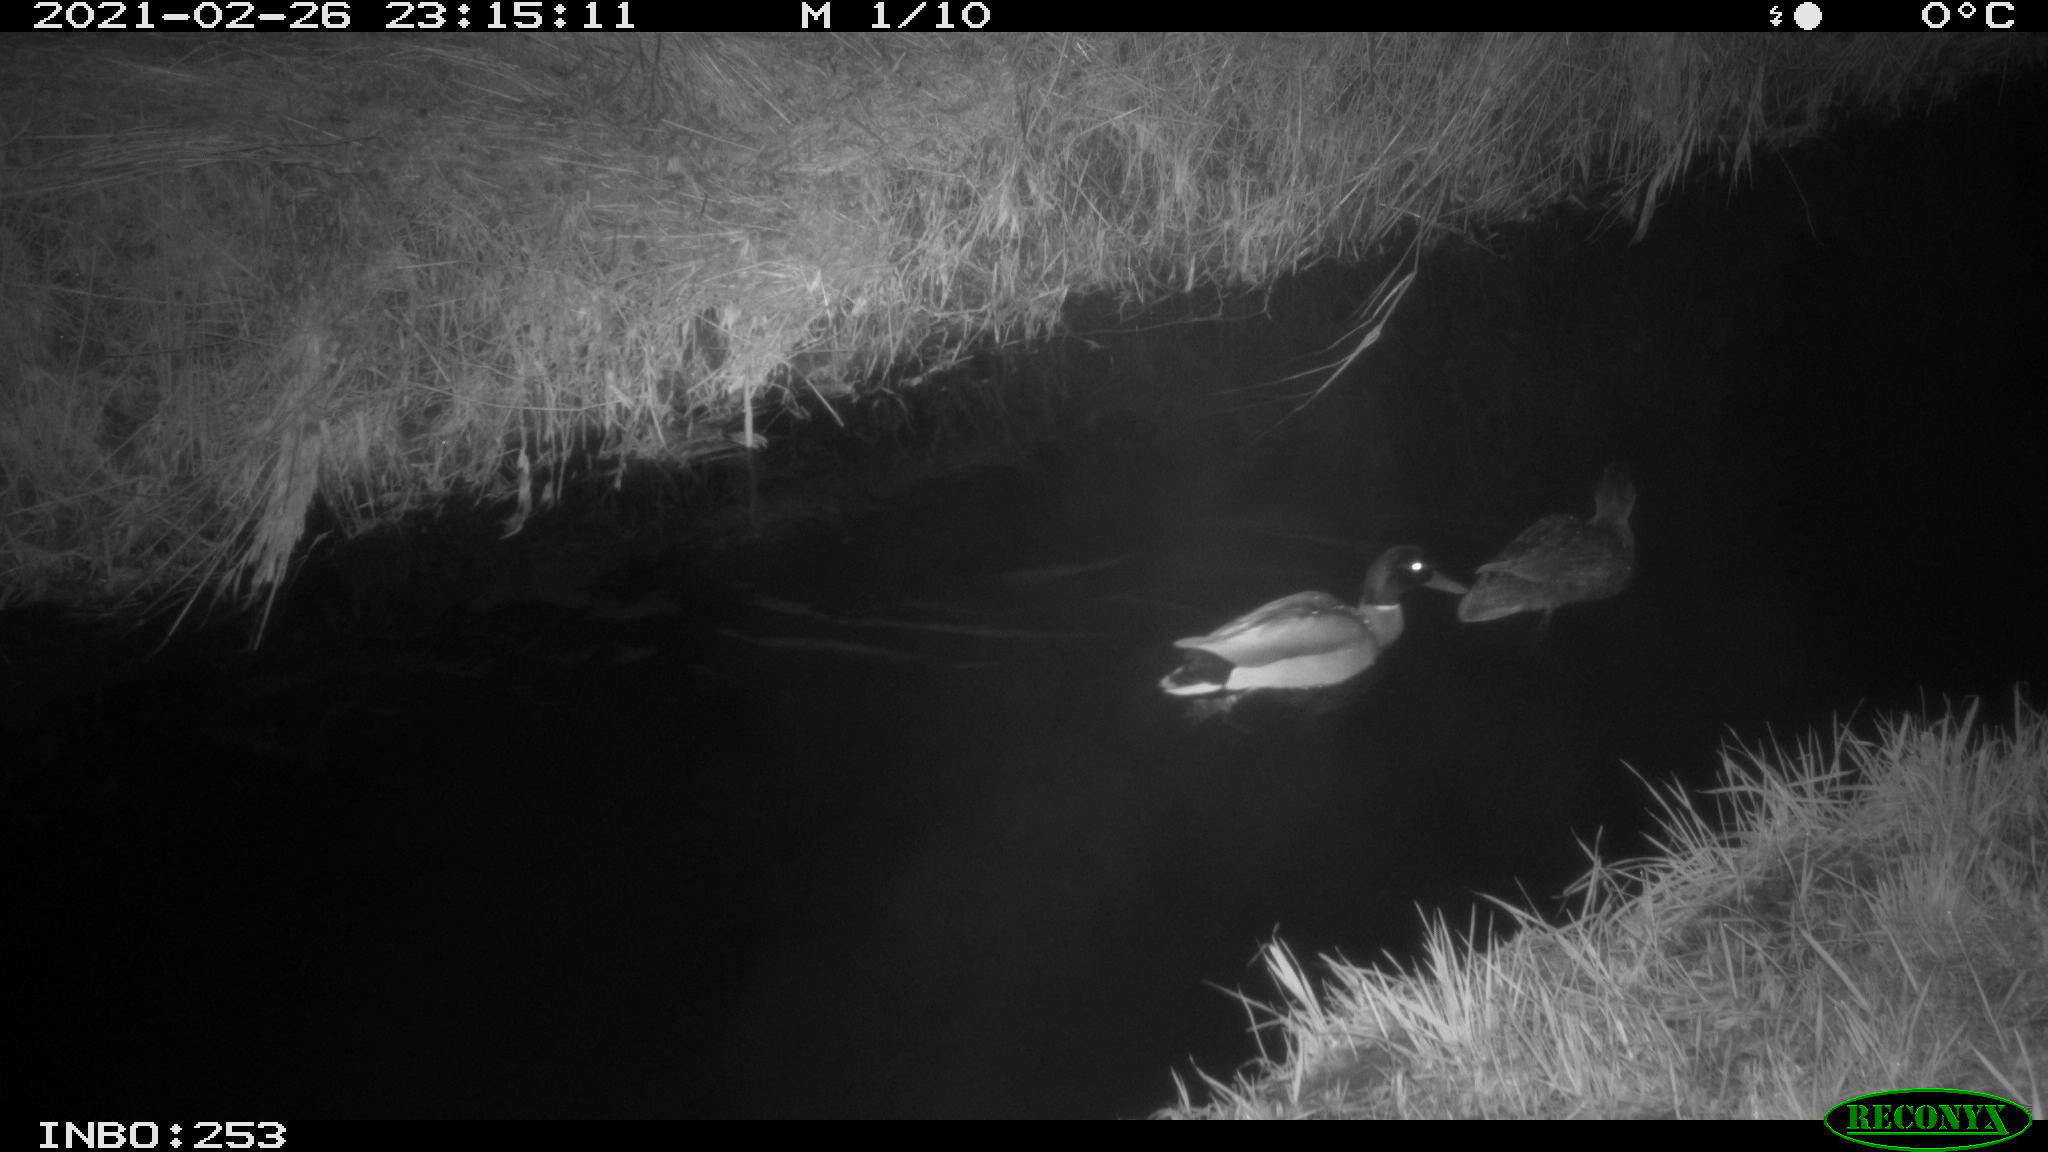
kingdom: Animalia
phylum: Chordata
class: Aves
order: Anseriformes
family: Anatidae
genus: Anas
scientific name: Anas platyrhynchos
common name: Mallard
